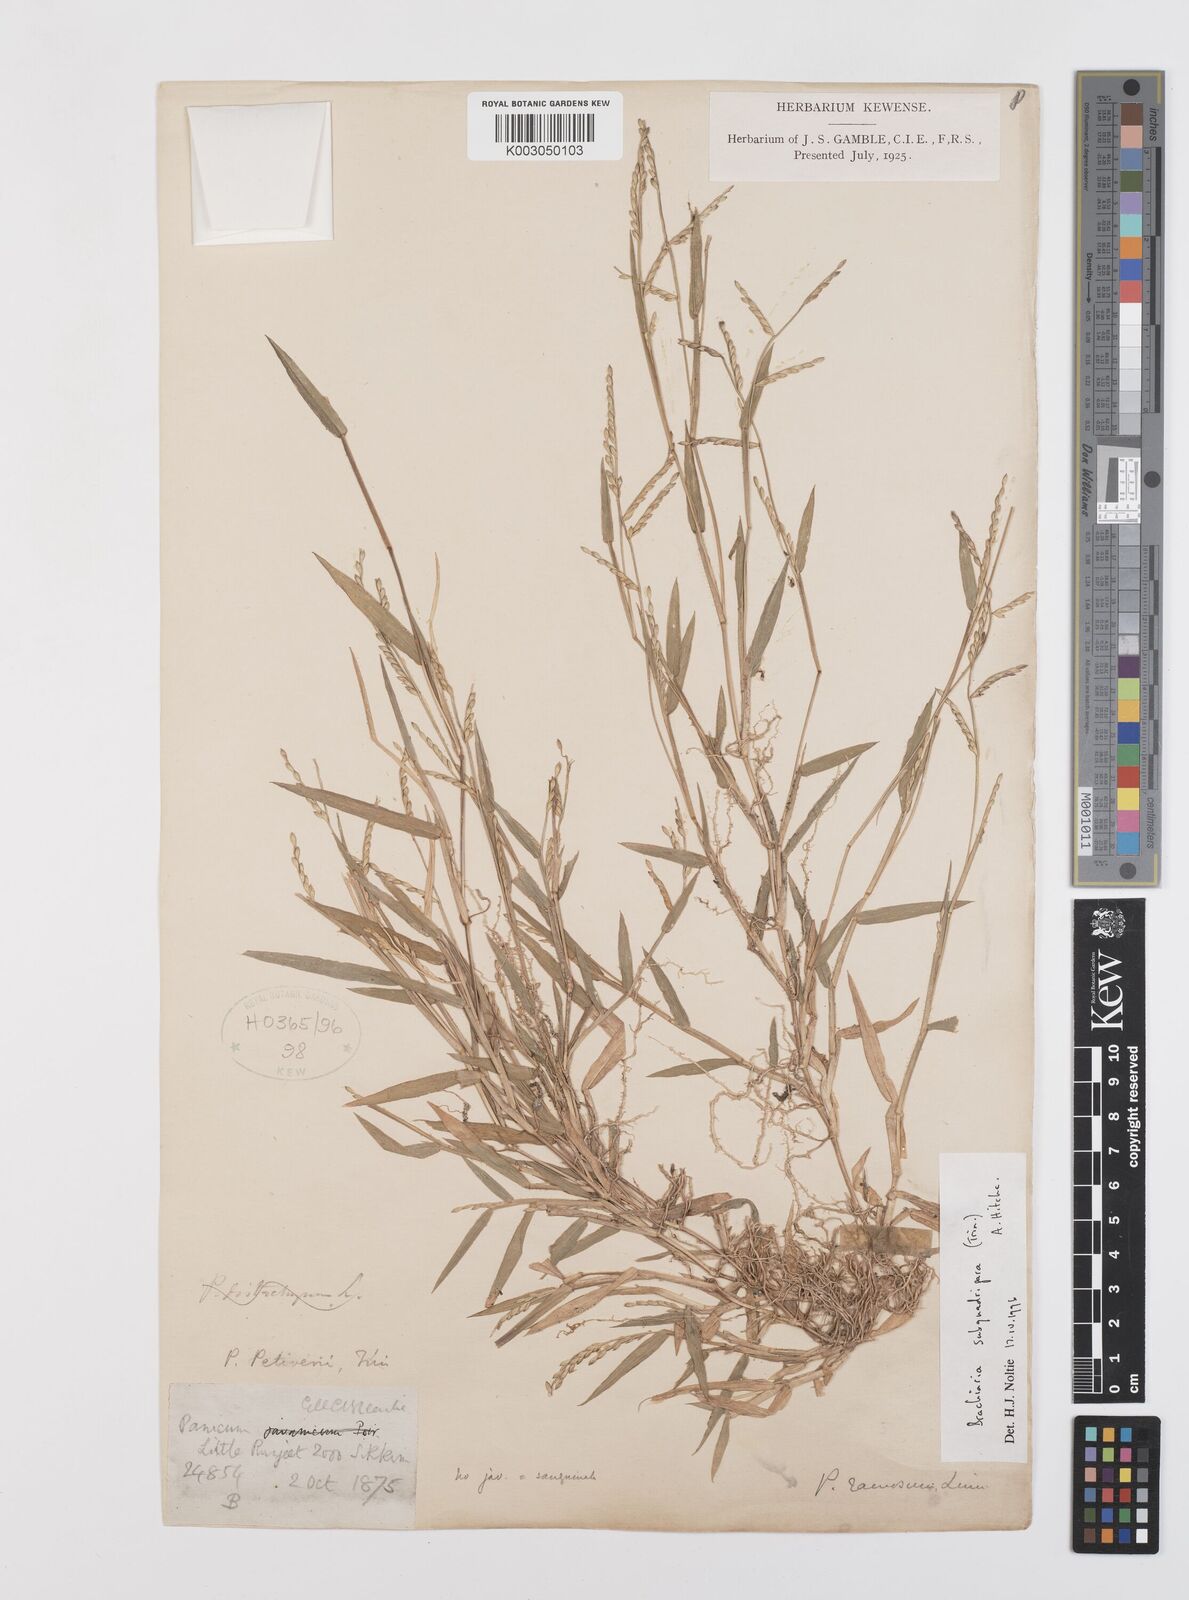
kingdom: Plantae
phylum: Tracheophyta
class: Liliopsida
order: Poales
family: Poaceae
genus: Urochloa
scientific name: Urochloa subquadripara
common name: Armgrass millet
